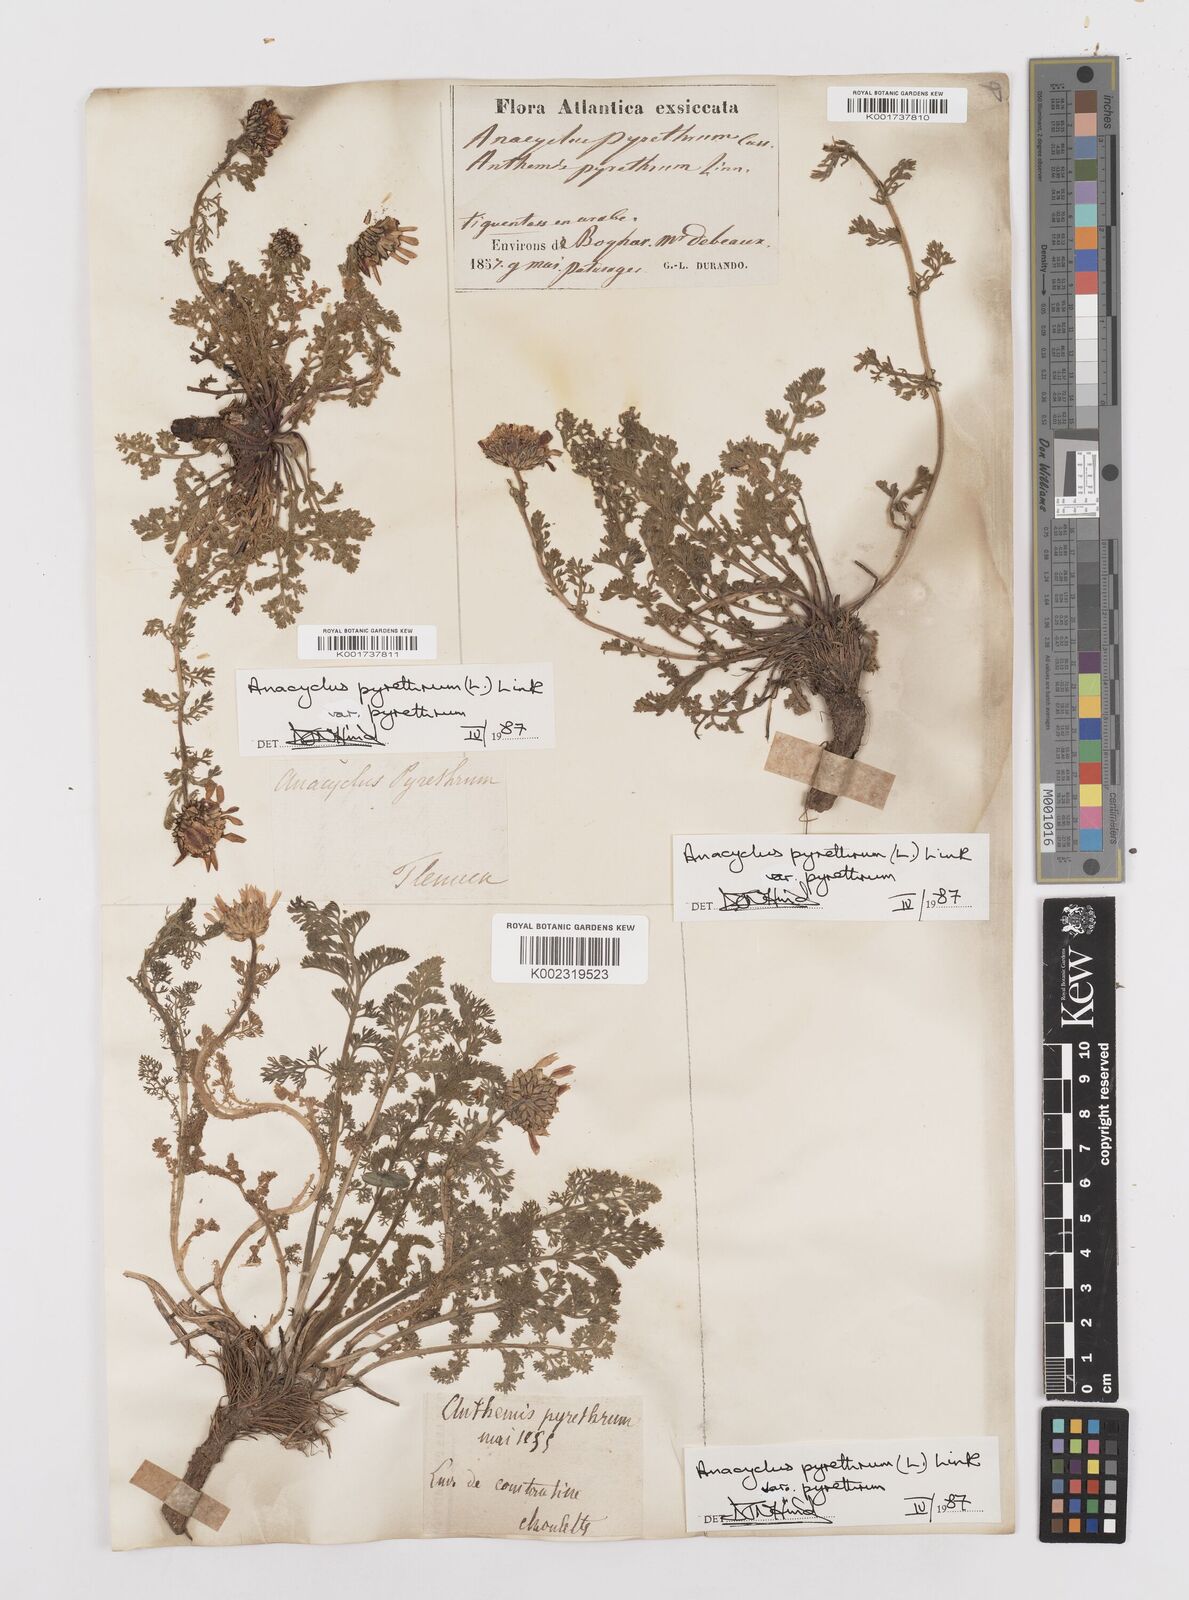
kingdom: Plantae
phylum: Tracheophyta
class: Magnoliopsida
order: Asterales
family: Asteraceae
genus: Anacyclus
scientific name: Anacyclus pyrethrum
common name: Mt. atlas daisy
